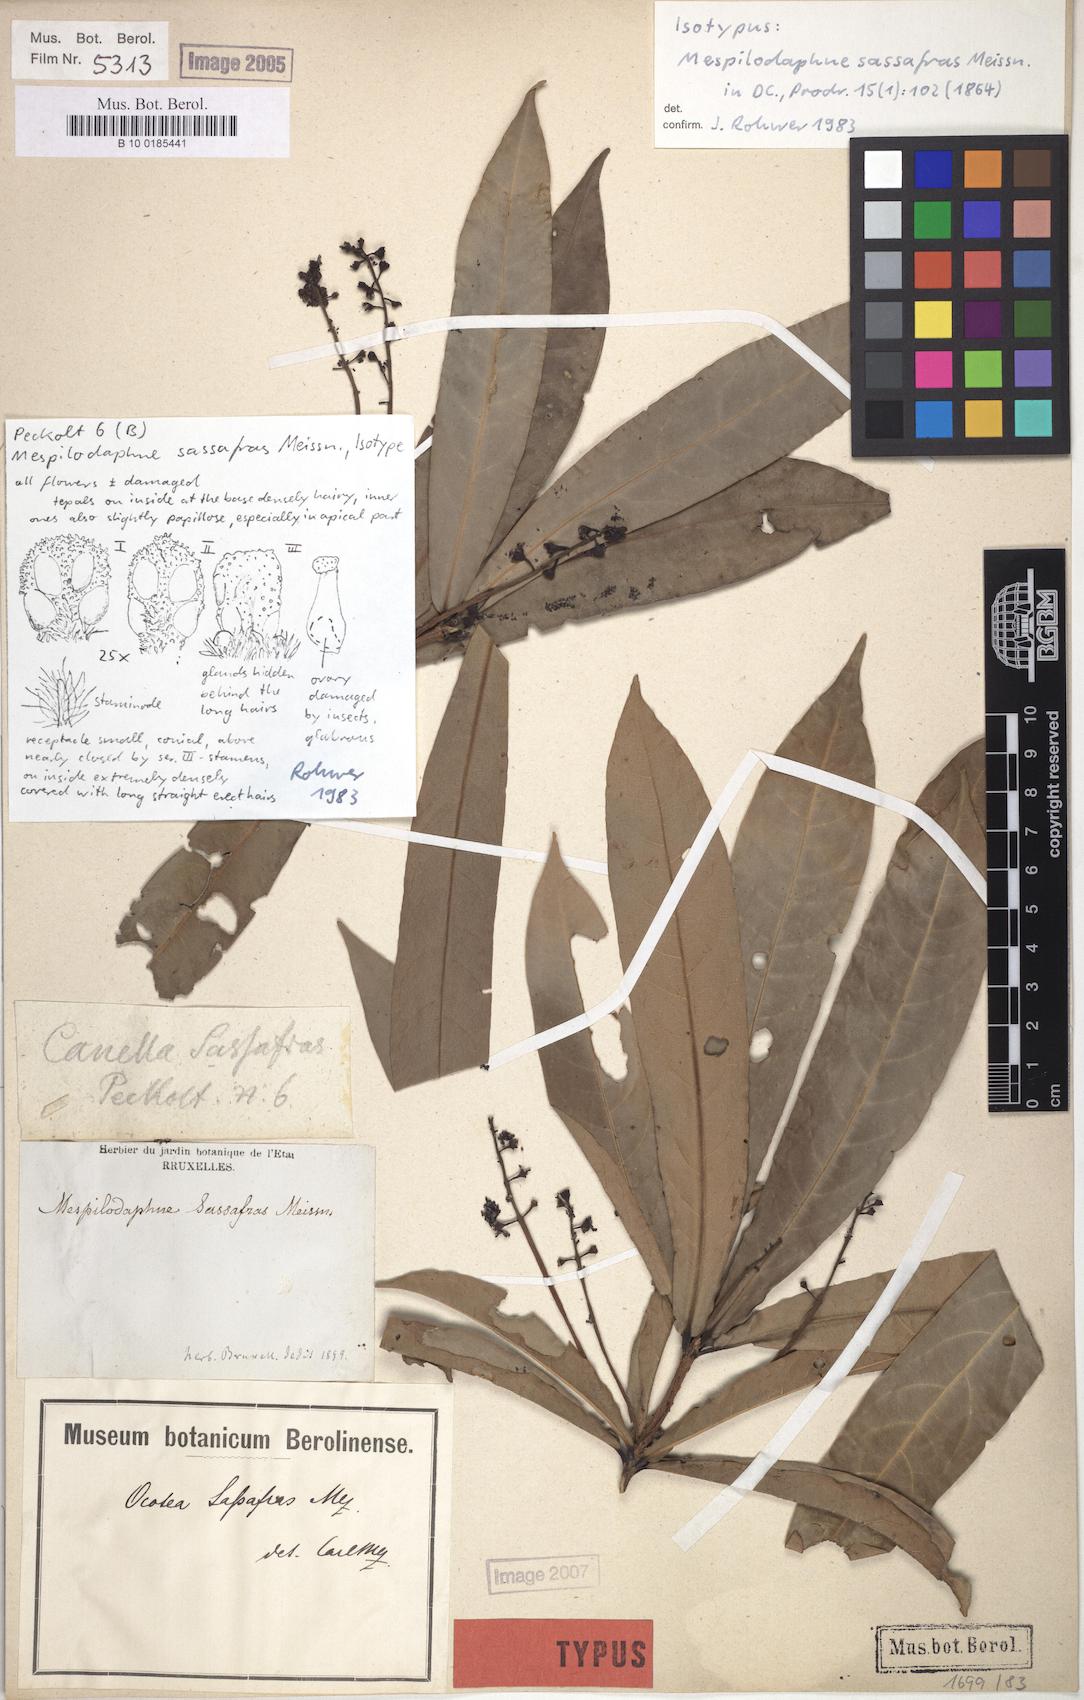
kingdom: Plantae
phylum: Tracheophyta
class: Magnoliopsida
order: Laurales
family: Lauraceae
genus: Mespilodaphne
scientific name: Mespilodaphne sassafras
